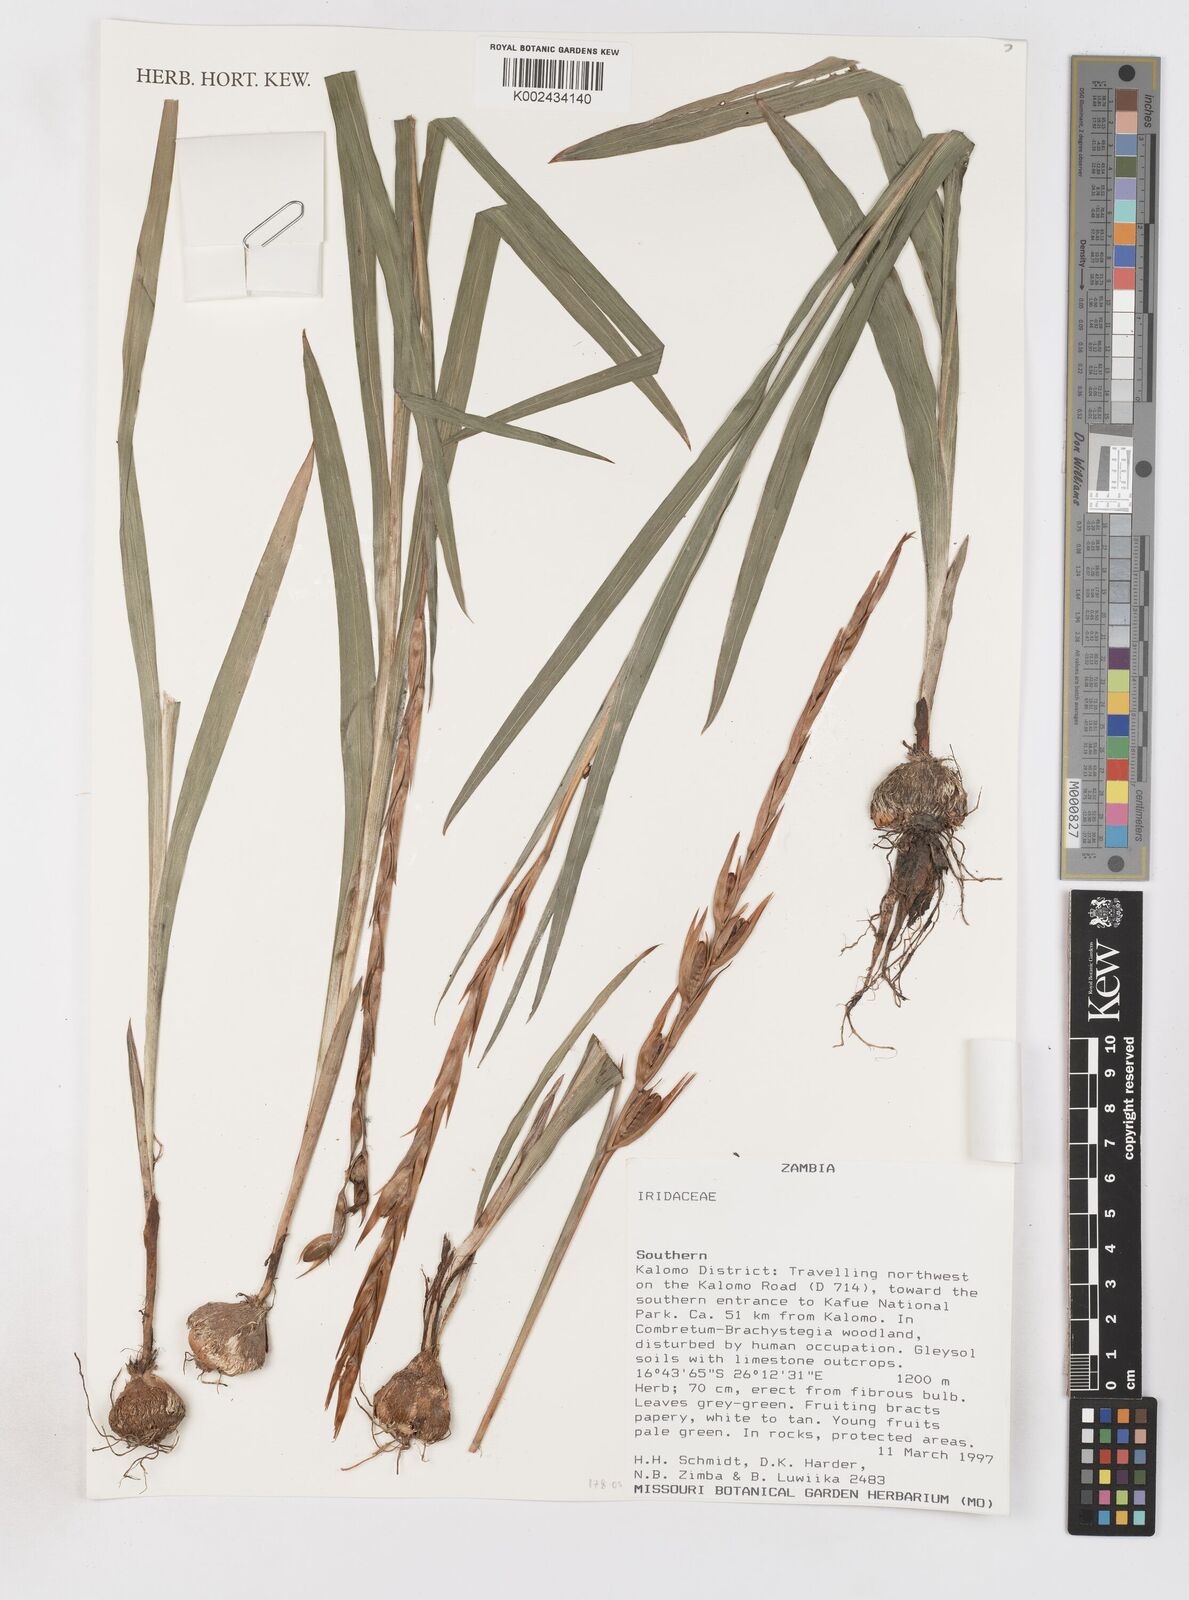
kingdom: Plantae
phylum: Tracheophyta
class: Liliopsida
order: Asparagales
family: Iridaceae
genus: Gladiolus
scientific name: Gladiolus gregarius
